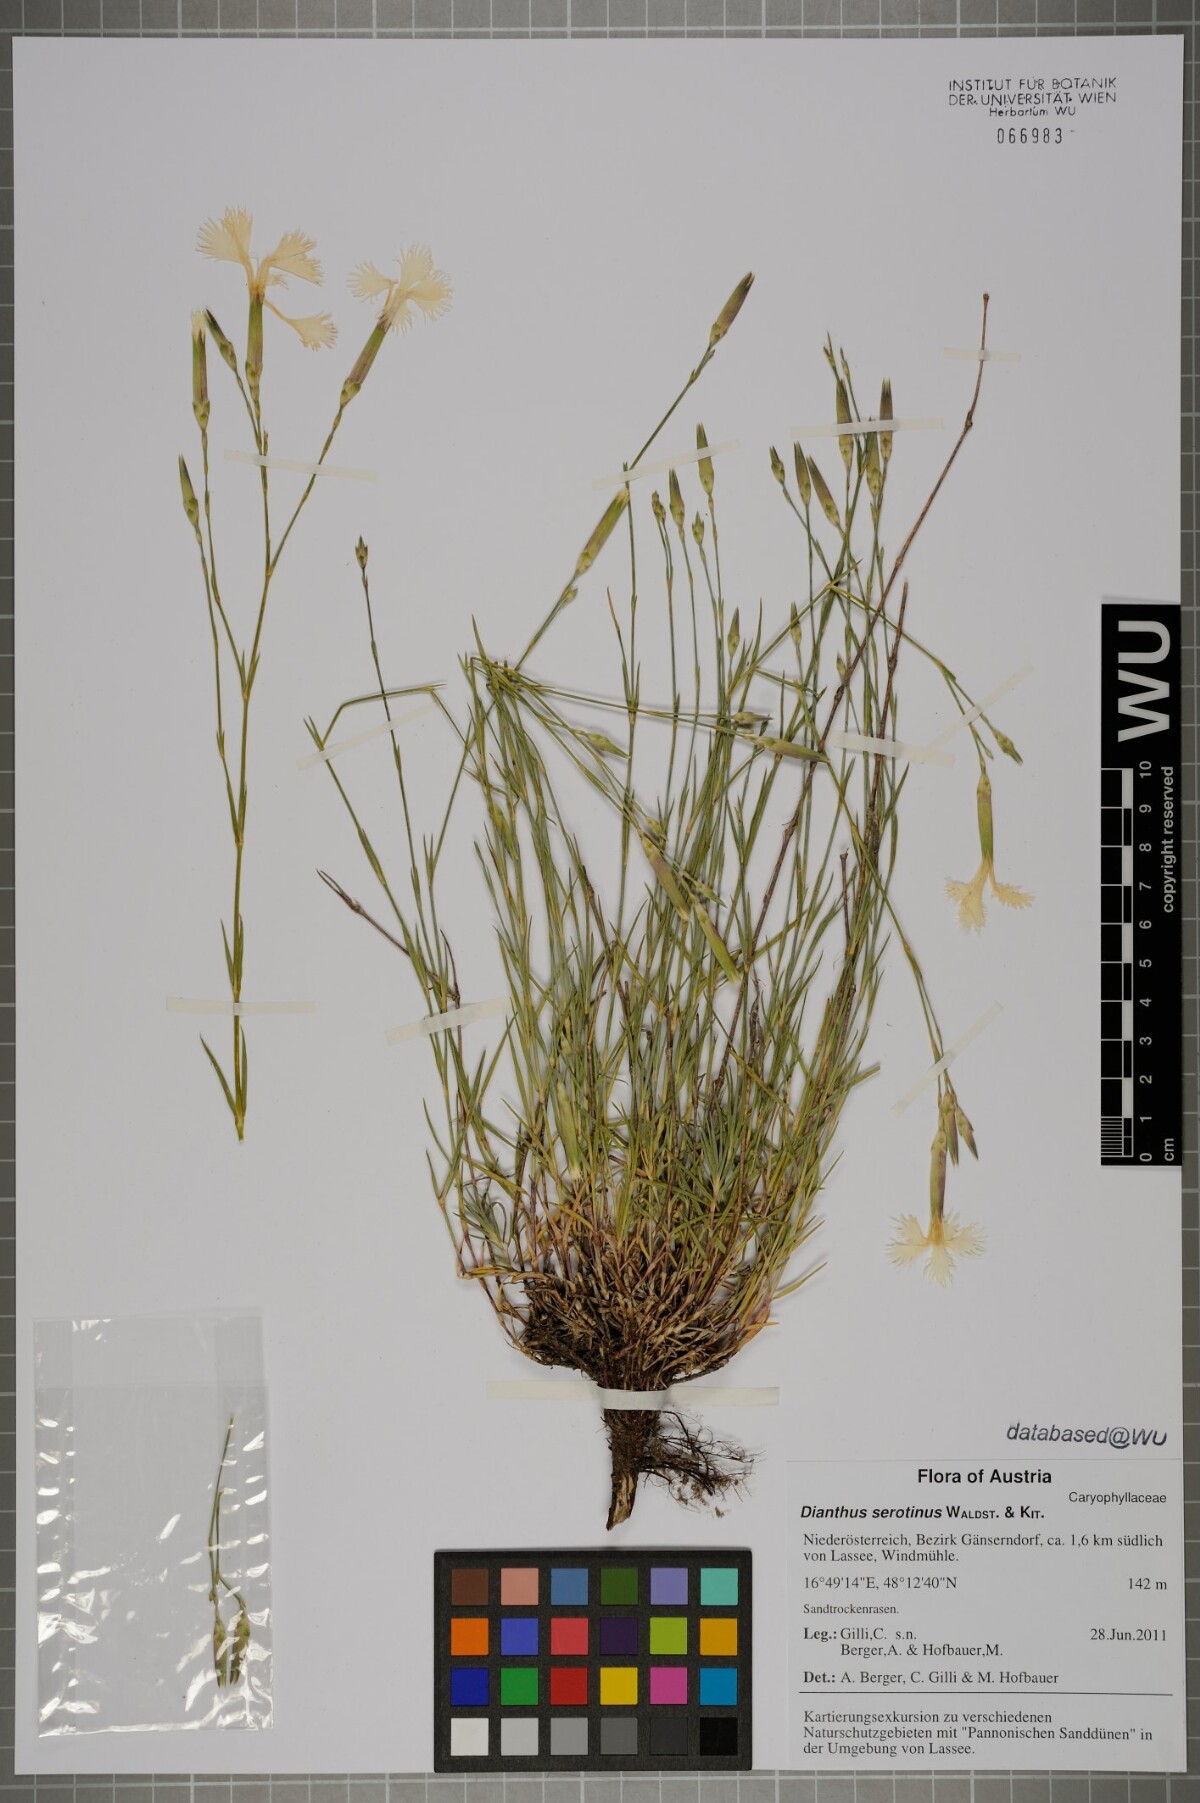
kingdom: Plantae
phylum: Tracheophyta
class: Magnoliopsida
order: Caryophyllales
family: Caryophyllaceae
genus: Dianthus
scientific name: Dianthus serotinus
